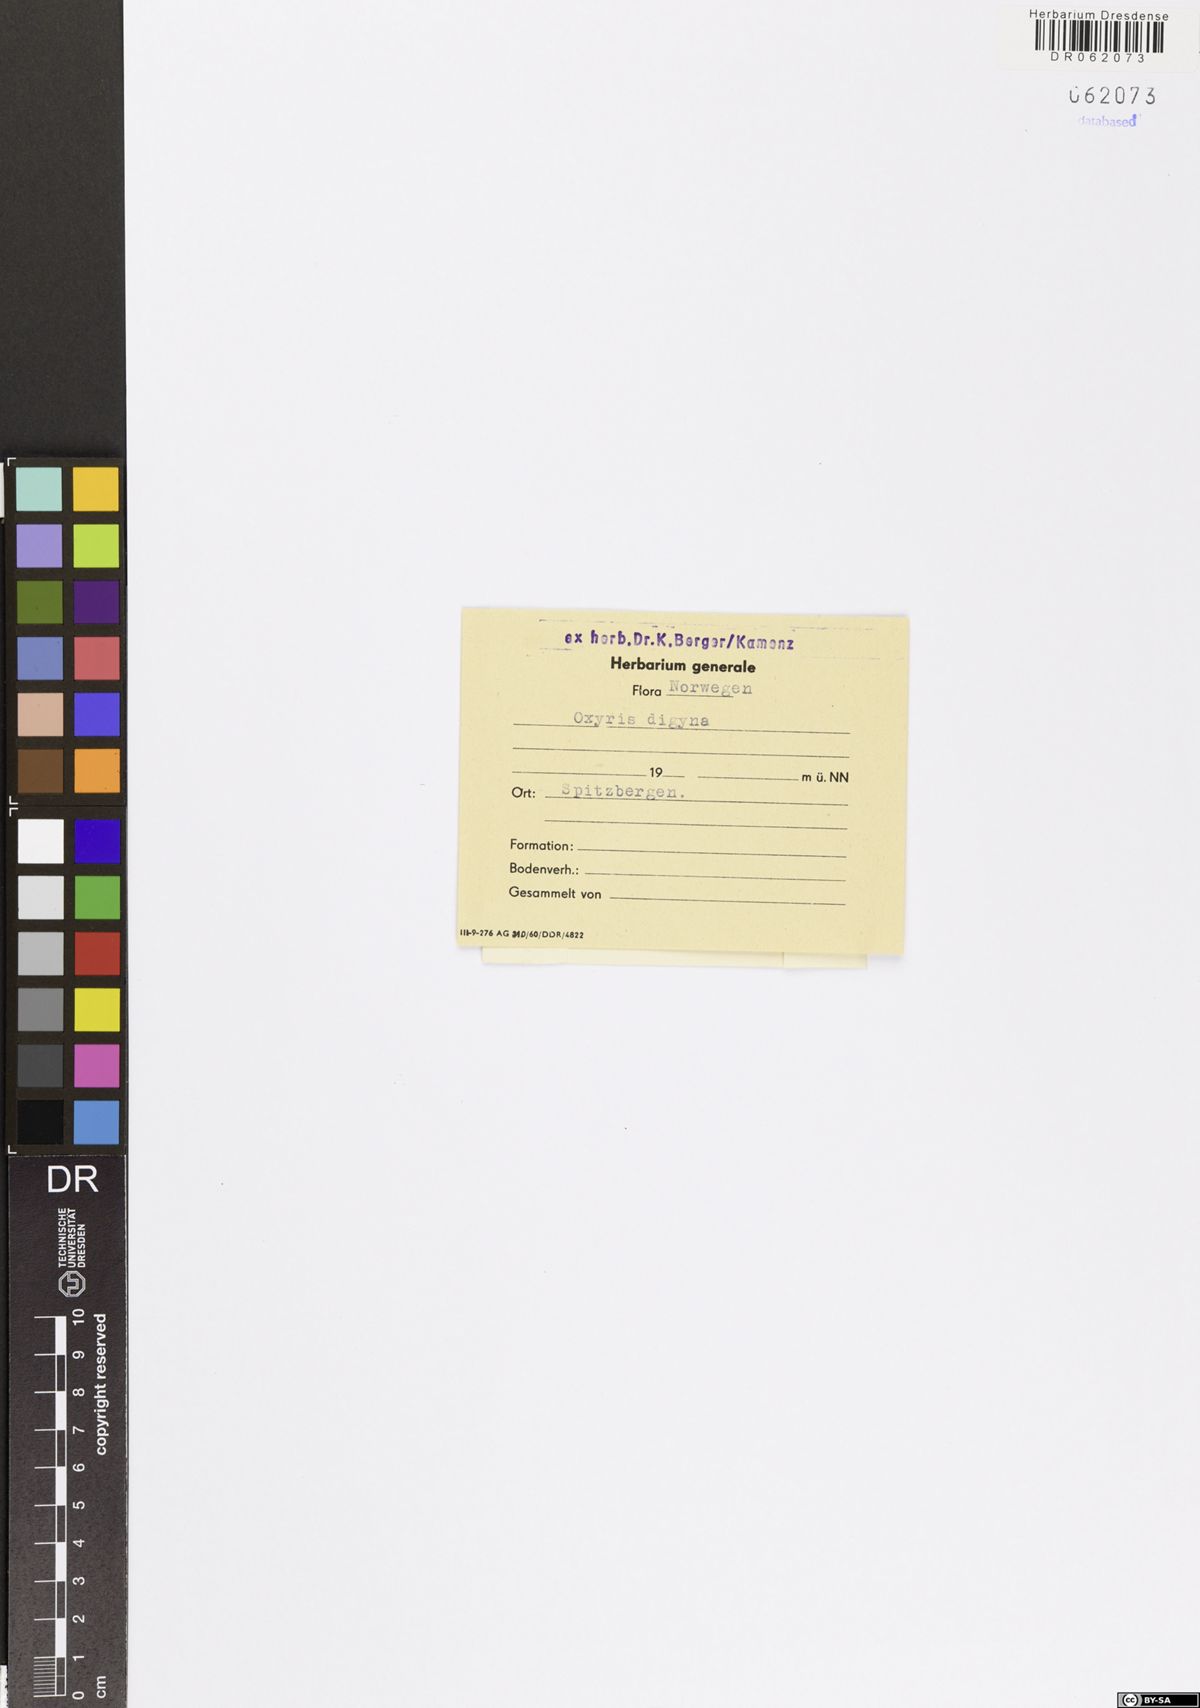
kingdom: Plantae
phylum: Tracheophyta
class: Magnoliopsida
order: Caryophyllales
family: Polygonaceae
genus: Oxyria
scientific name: Oxyria digyna
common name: Alpine mountain-sorrel
